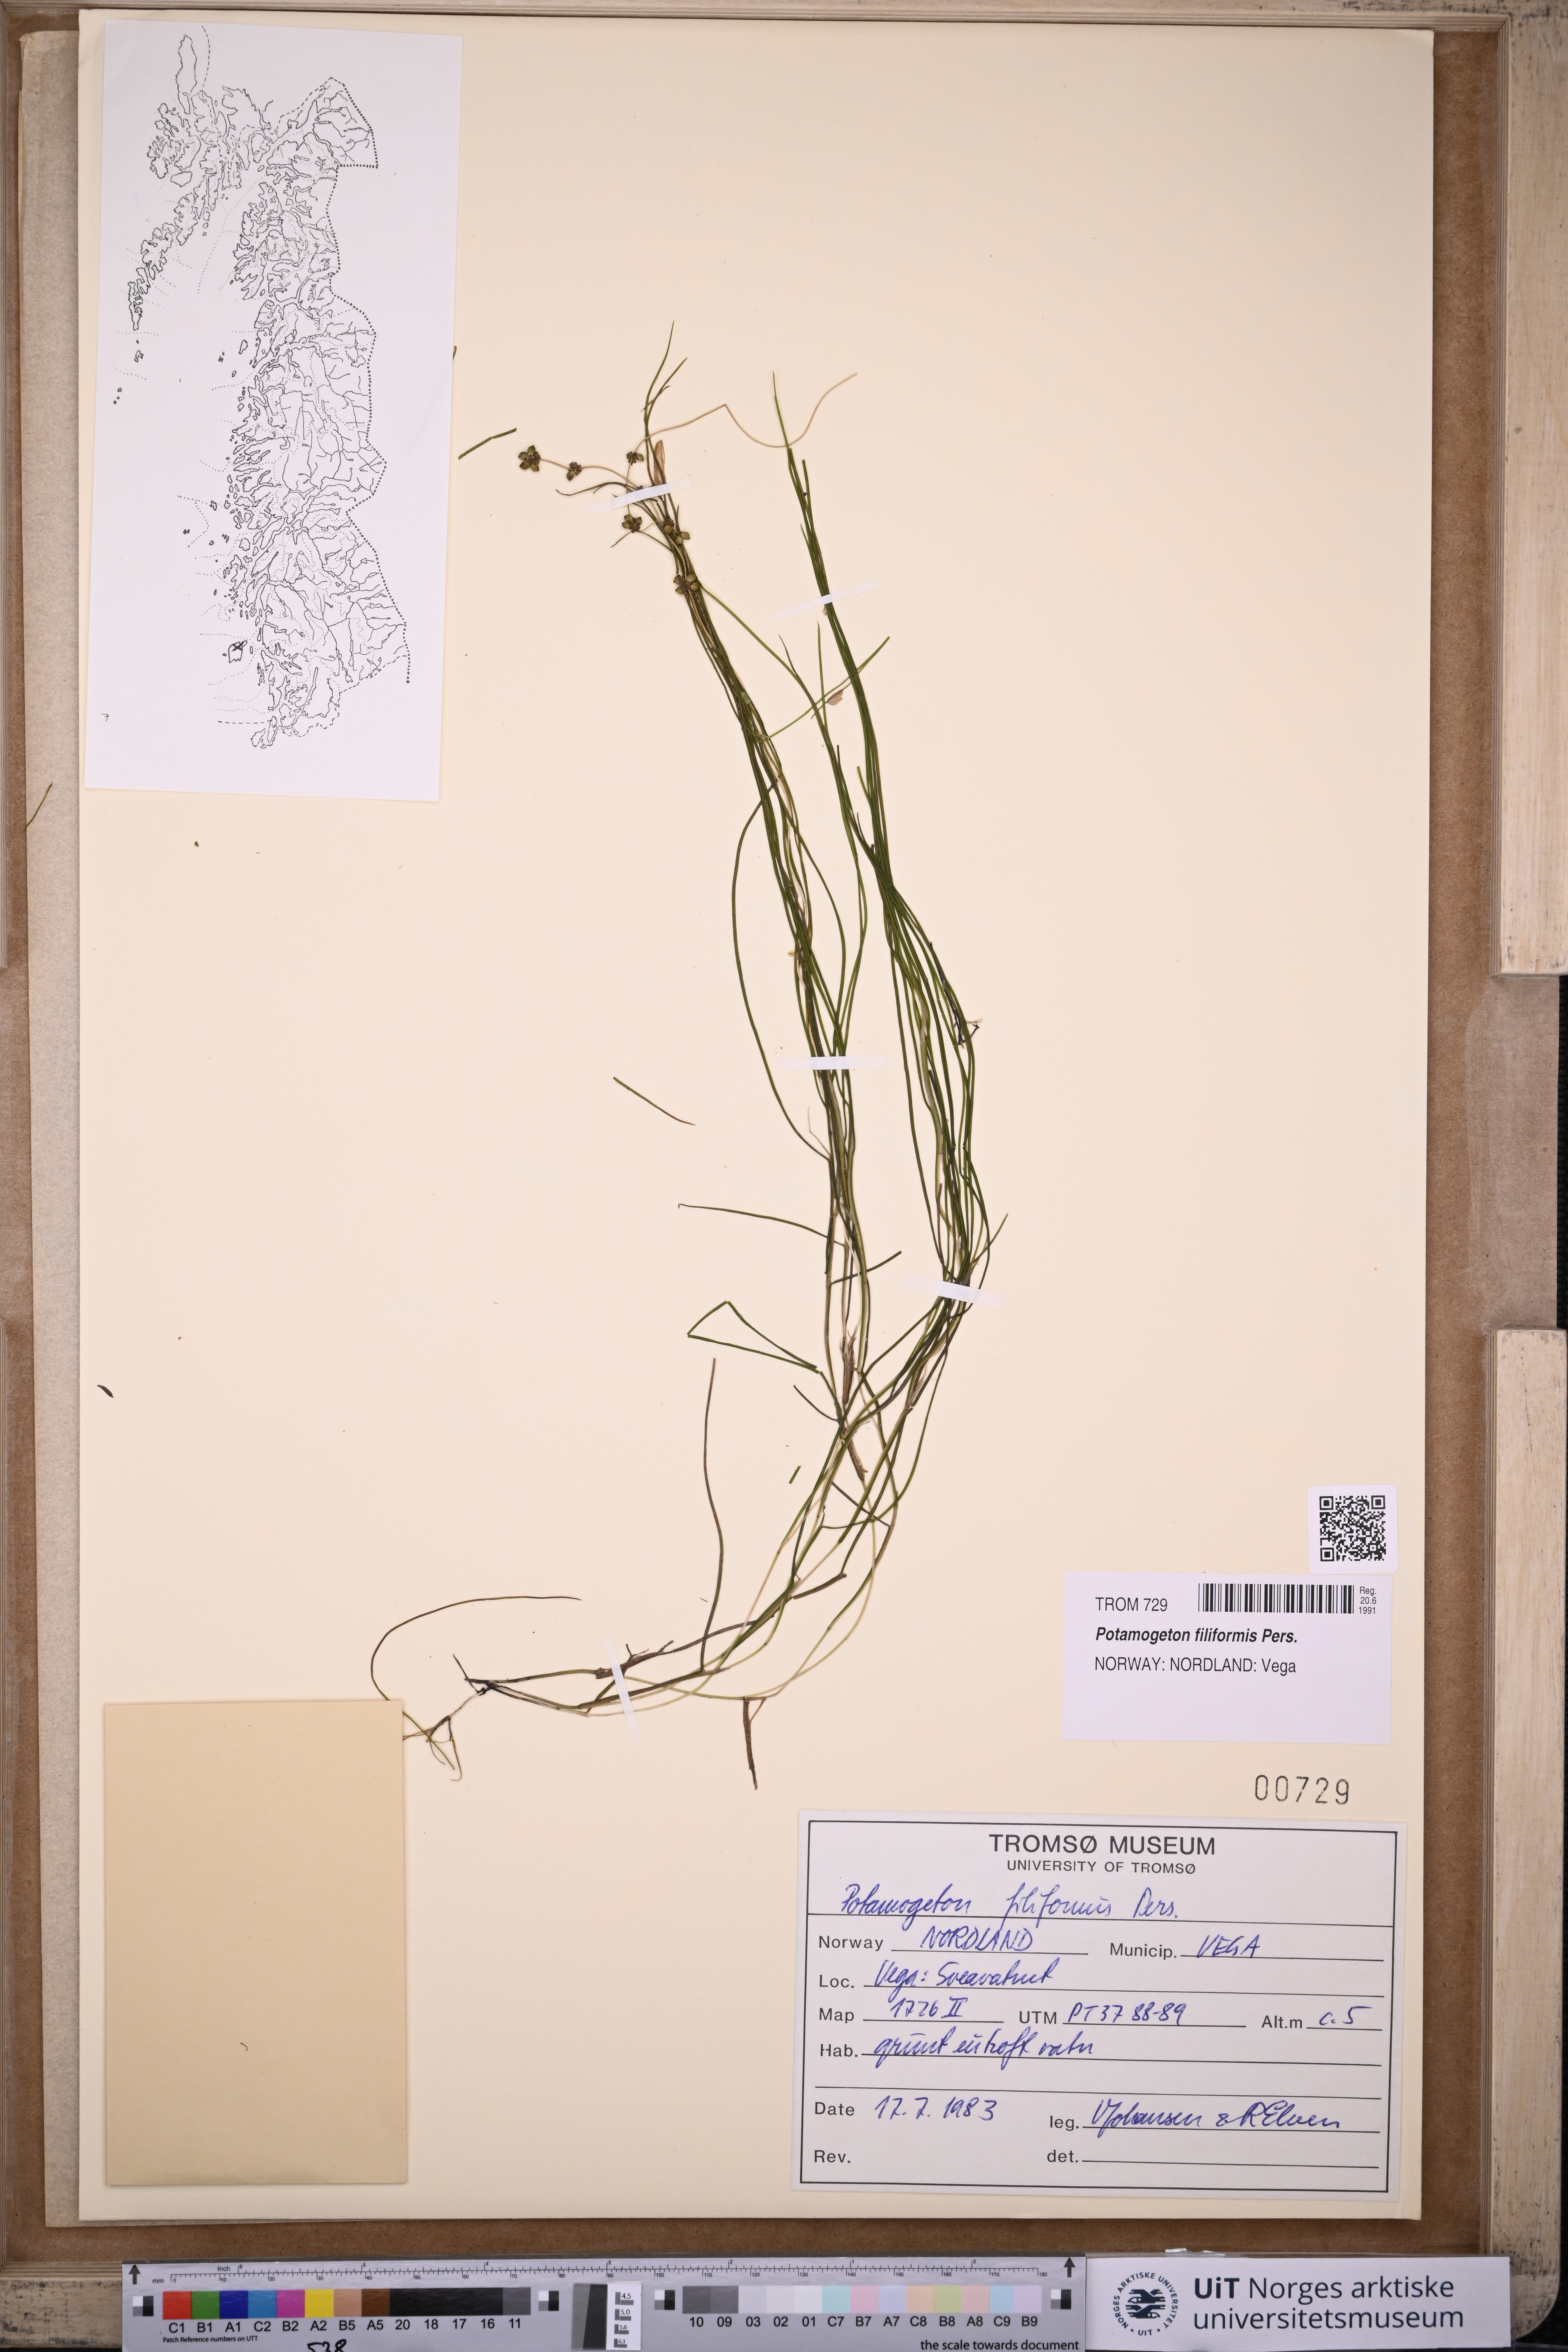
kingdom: Plantae
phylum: Tracheophyta
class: Liliopsida
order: Alismatales
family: Potamogetonaceae
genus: Stuckenia
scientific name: Stuckenia filiformis
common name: Alpine thread-leaved pondweed
